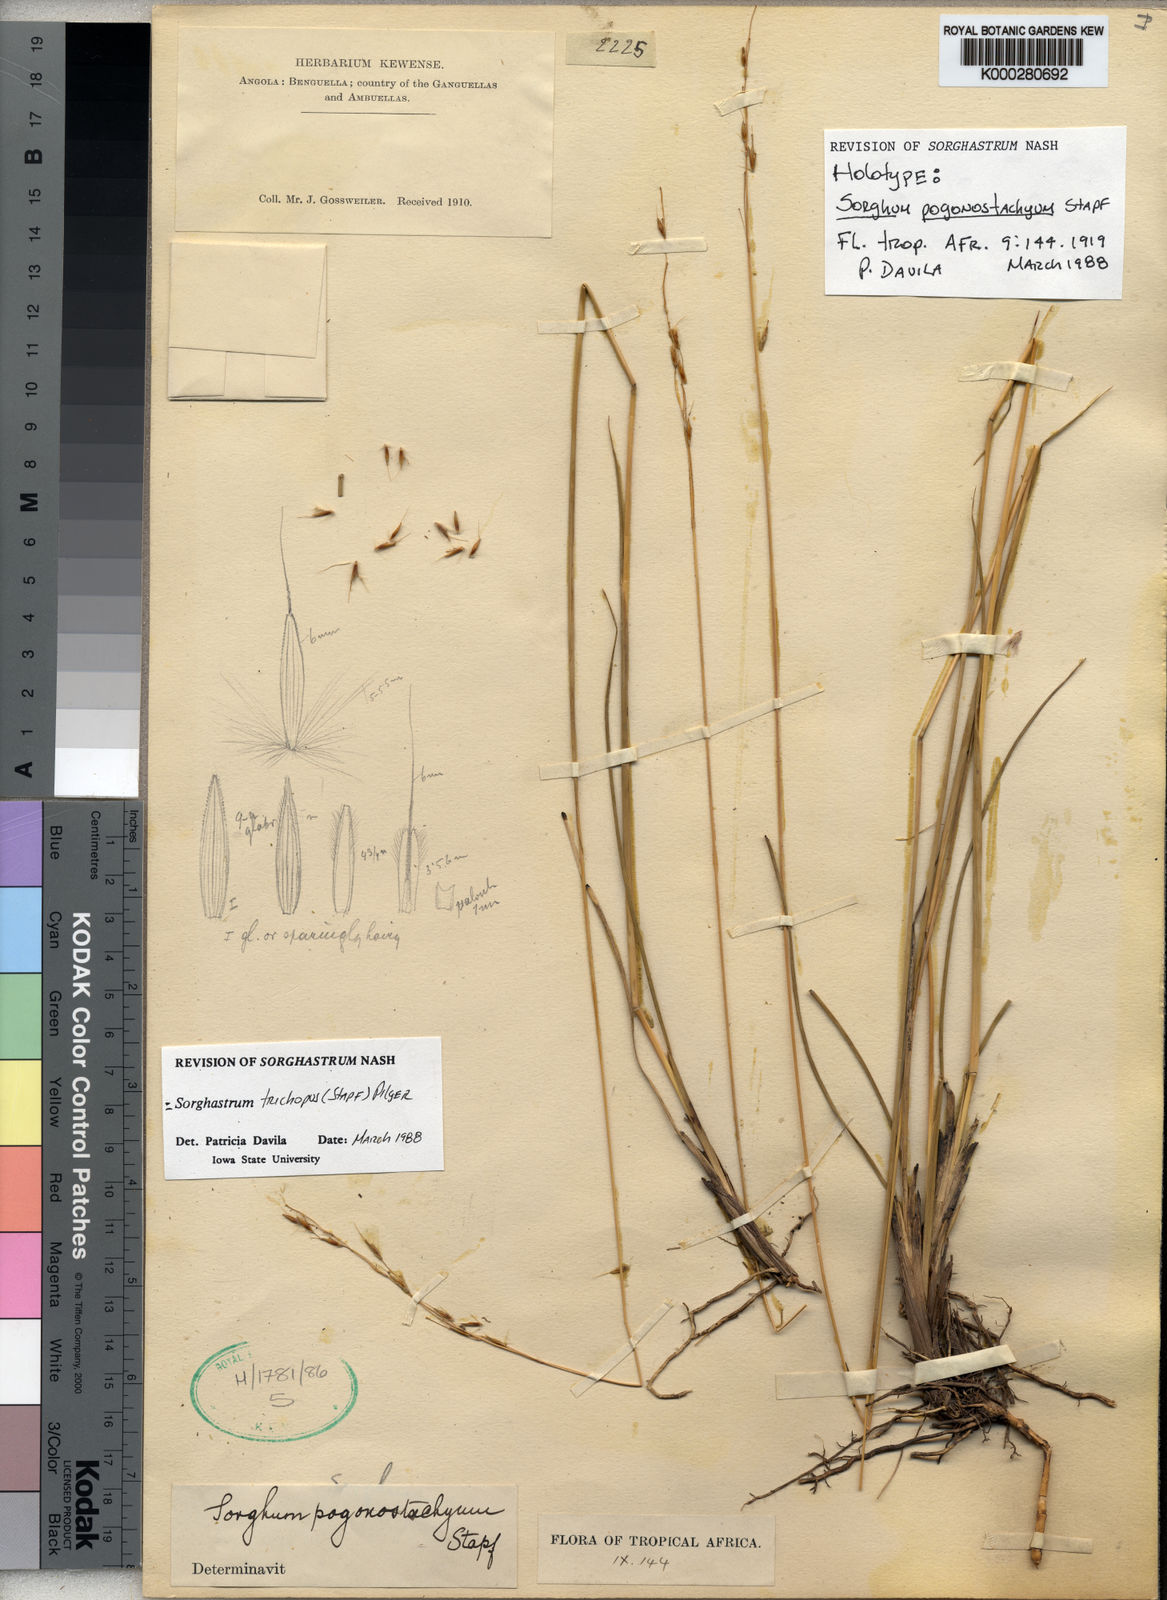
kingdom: Plantae
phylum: Tracheophyta
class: Liliopsida
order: Poales
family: Poaceae
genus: Sorghastrum
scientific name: Sorghastrum pogonostachyum
